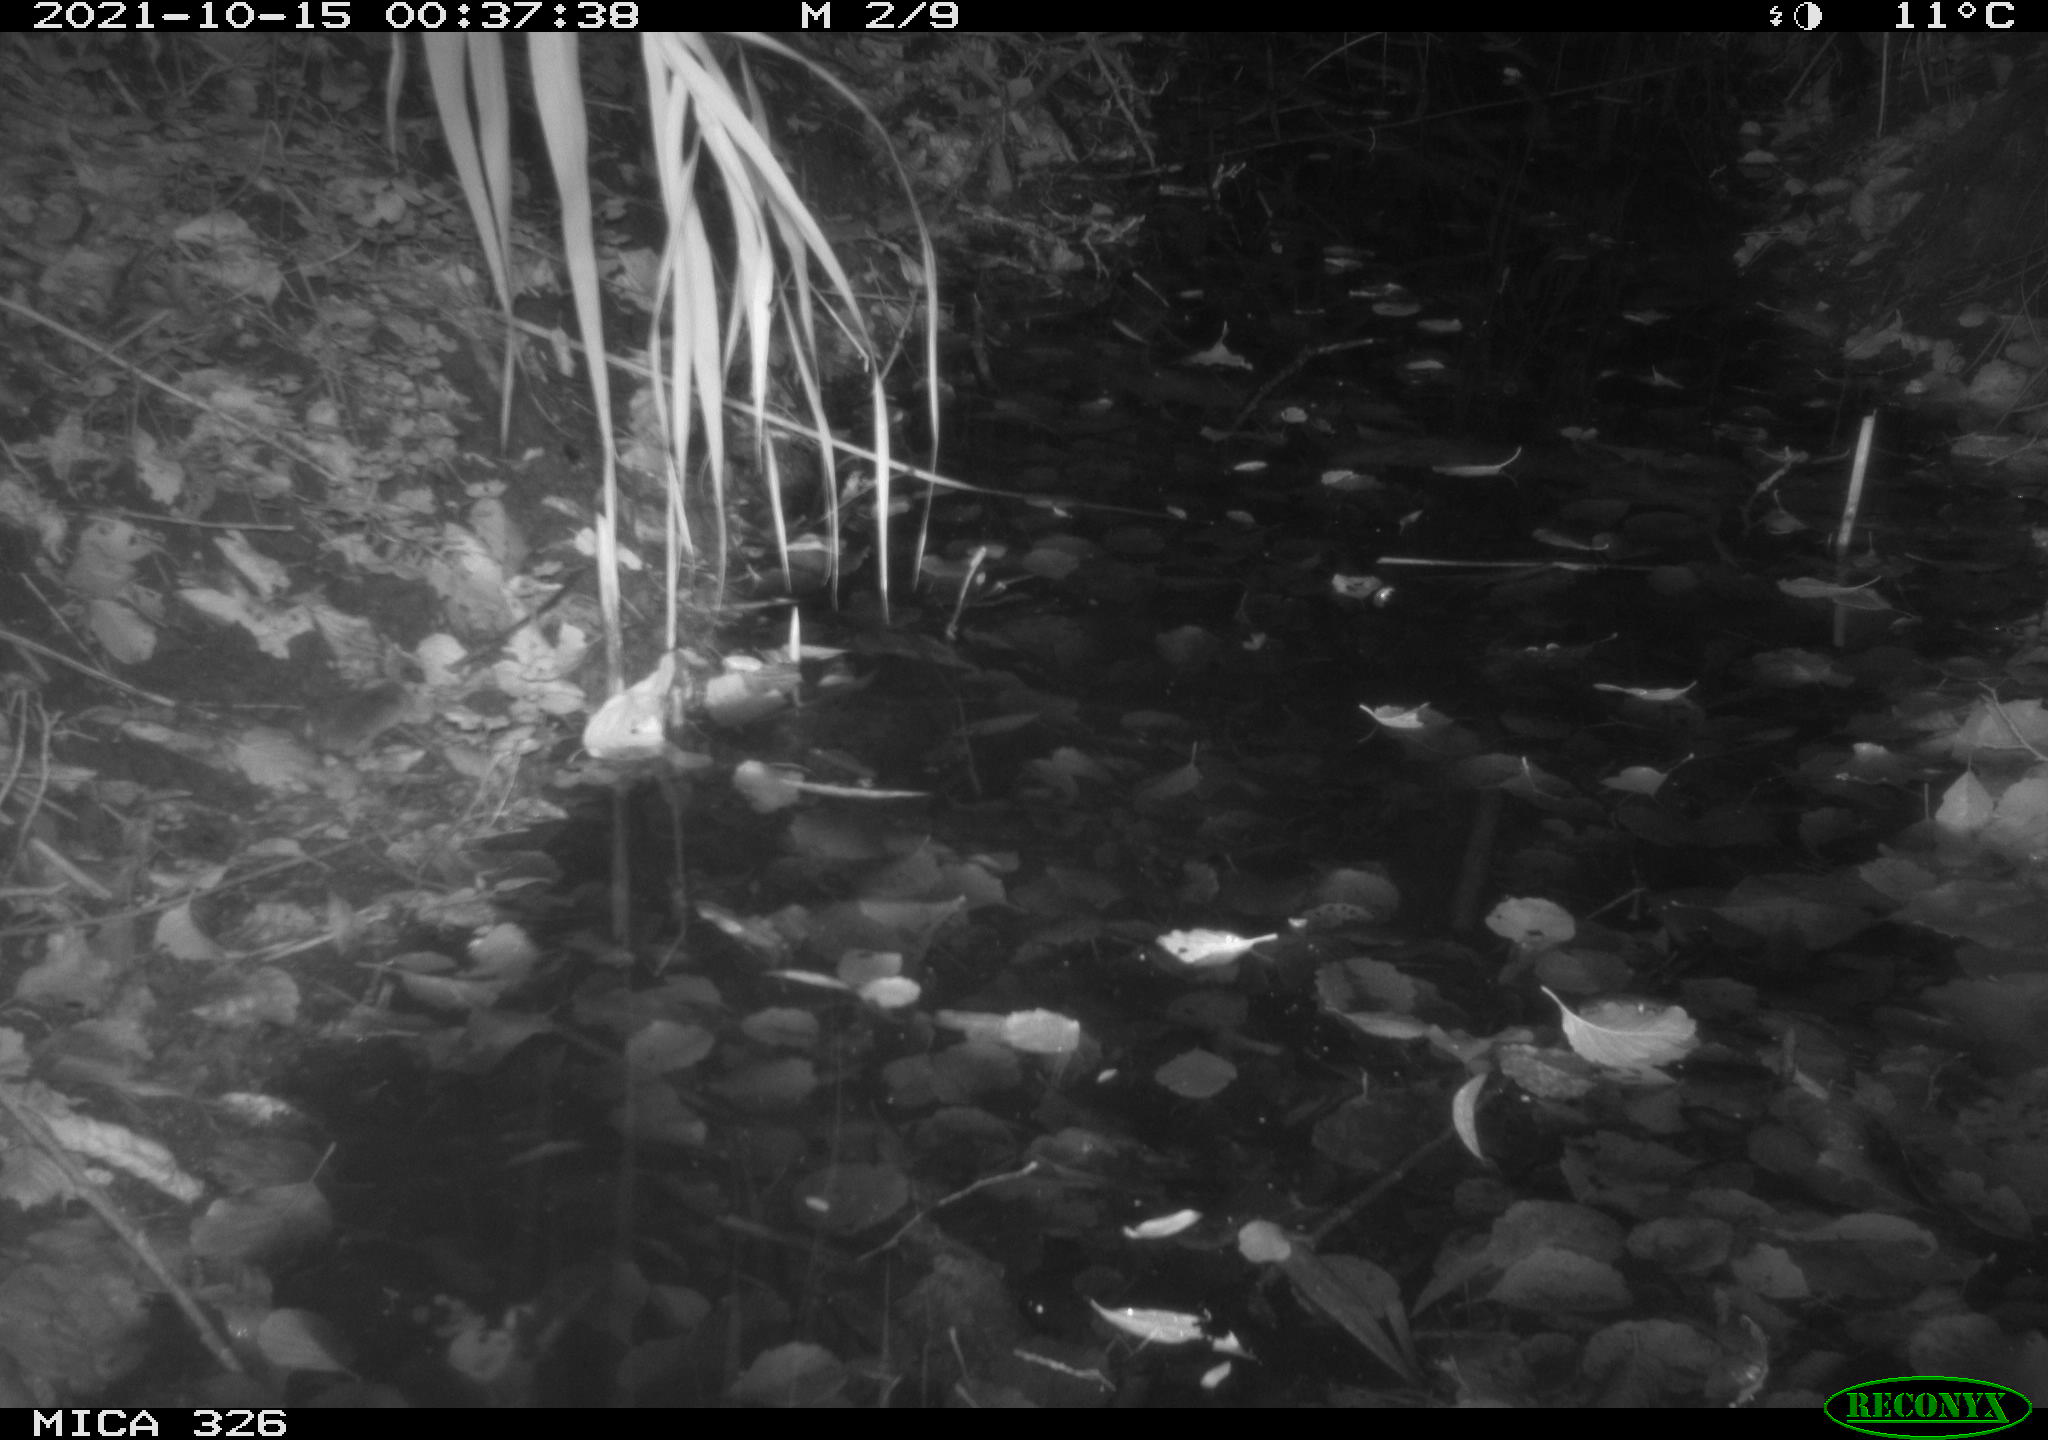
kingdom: Animalia
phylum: Chordata
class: Mammalia
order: Rodentia
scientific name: Rodentia
